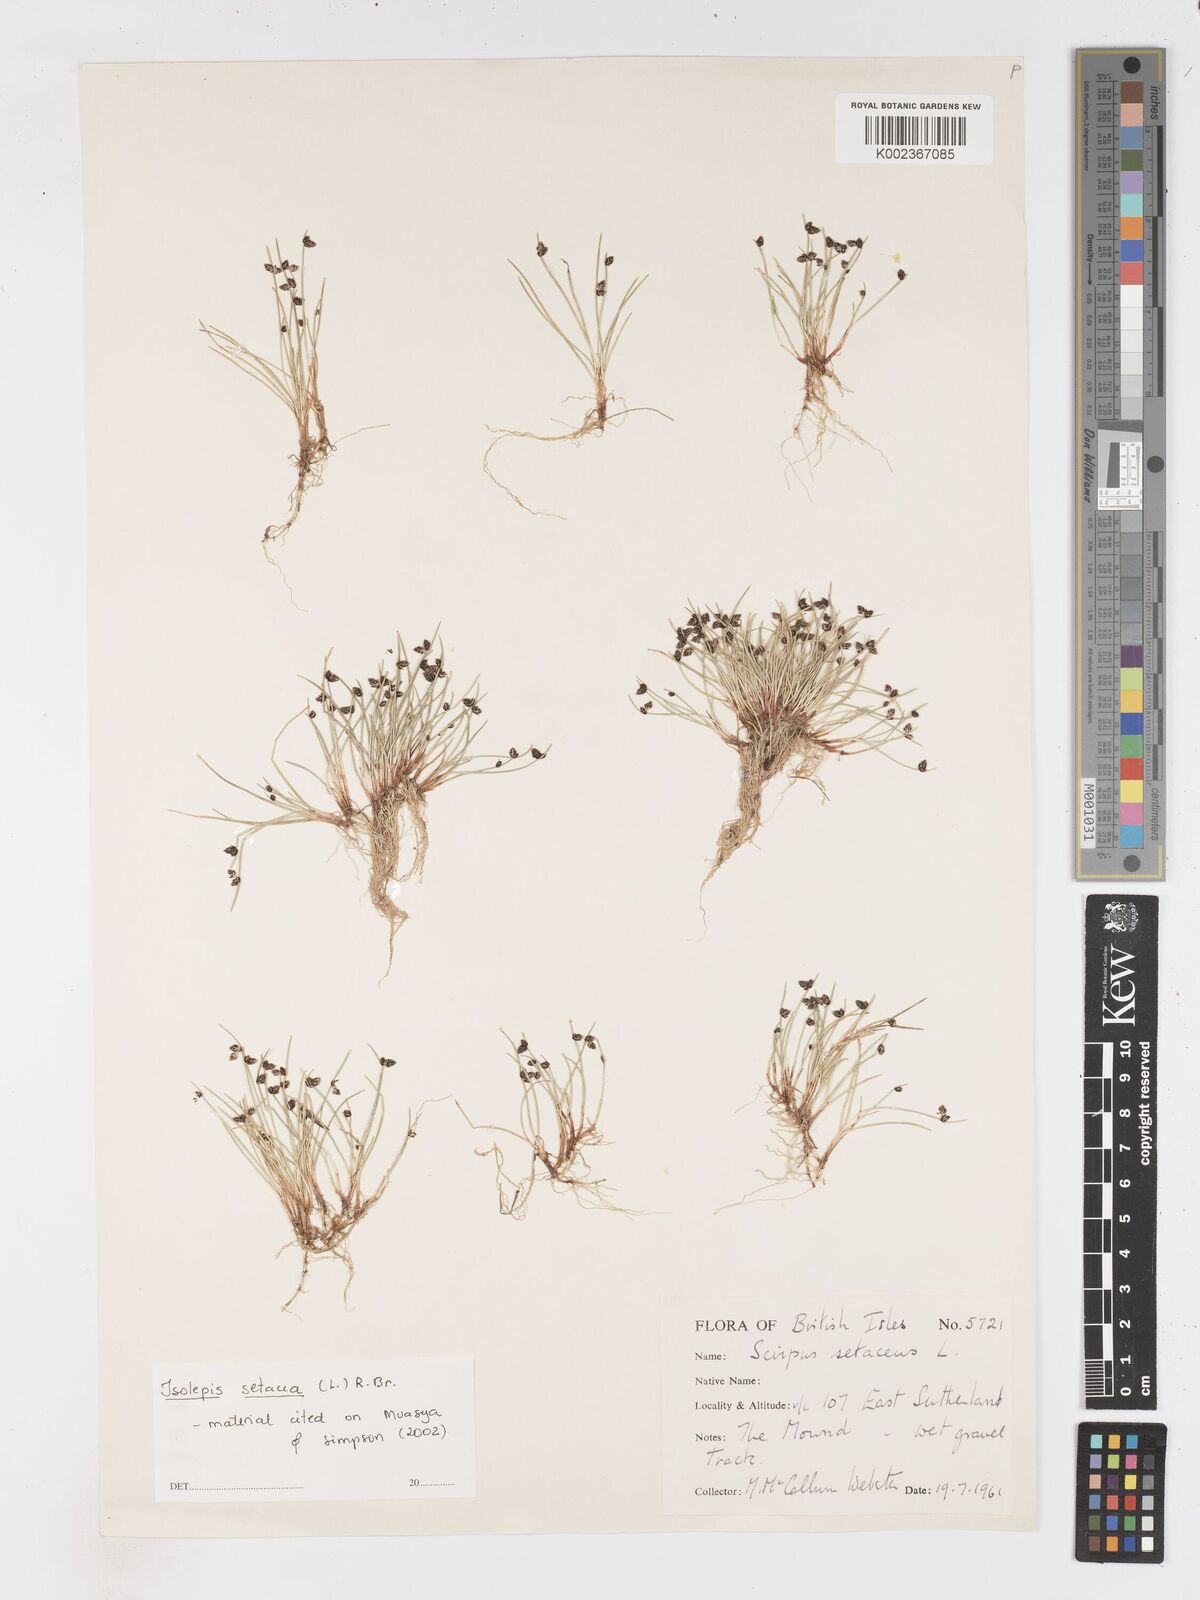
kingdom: Plantae
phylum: Tracheophyta
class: Liliopsida
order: Poales
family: Cyperaceae
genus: Isolepis
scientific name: Isolepis setacea
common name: Bristle club-rush
